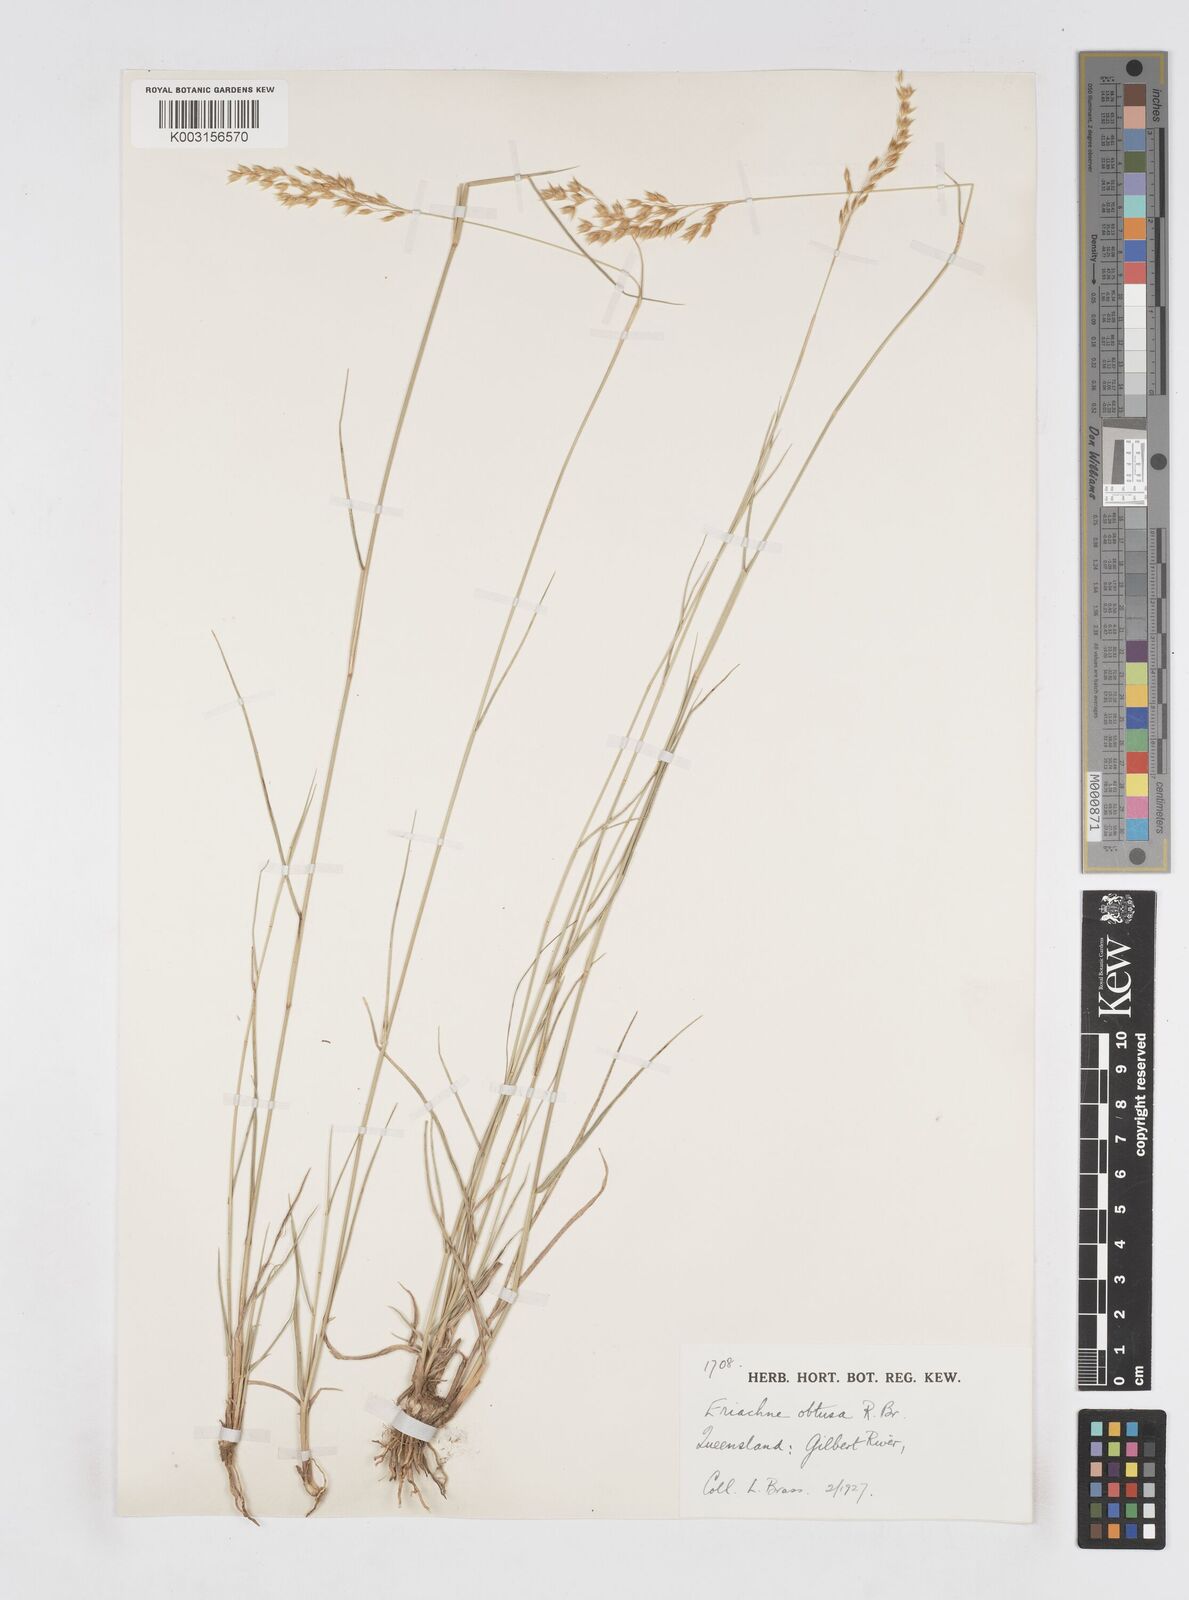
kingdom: Plantae
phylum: Tracheophyta
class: Liliopsida
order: Poales
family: Poaceae
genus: Eriachne
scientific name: Eriachne obtusa
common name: Northern wanderrie grass
